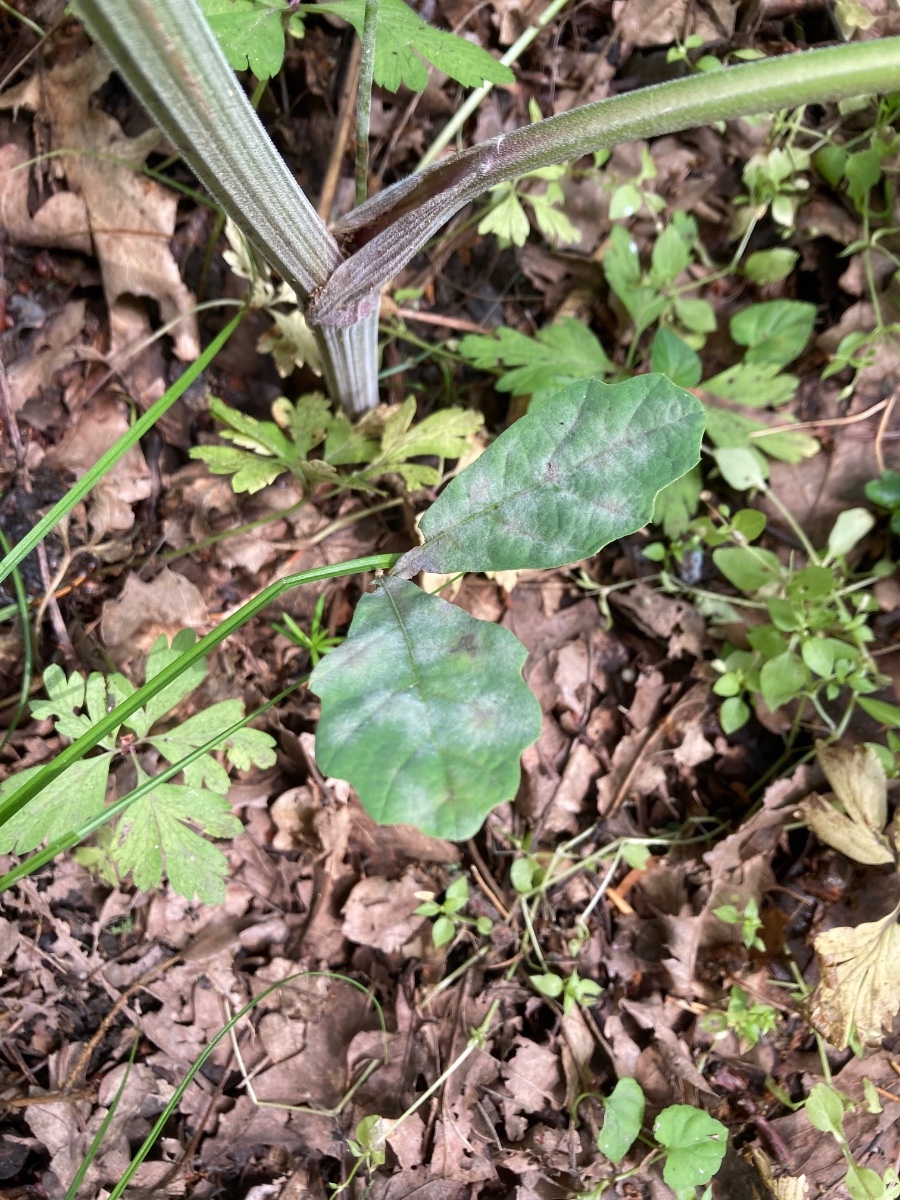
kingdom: Fungi
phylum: Ascomycota
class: Leotiomycetes
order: Helotiales
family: Erysiphaceae
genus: Erysiphe
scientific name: Erysiphe alphitoides
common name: ege-meldug
